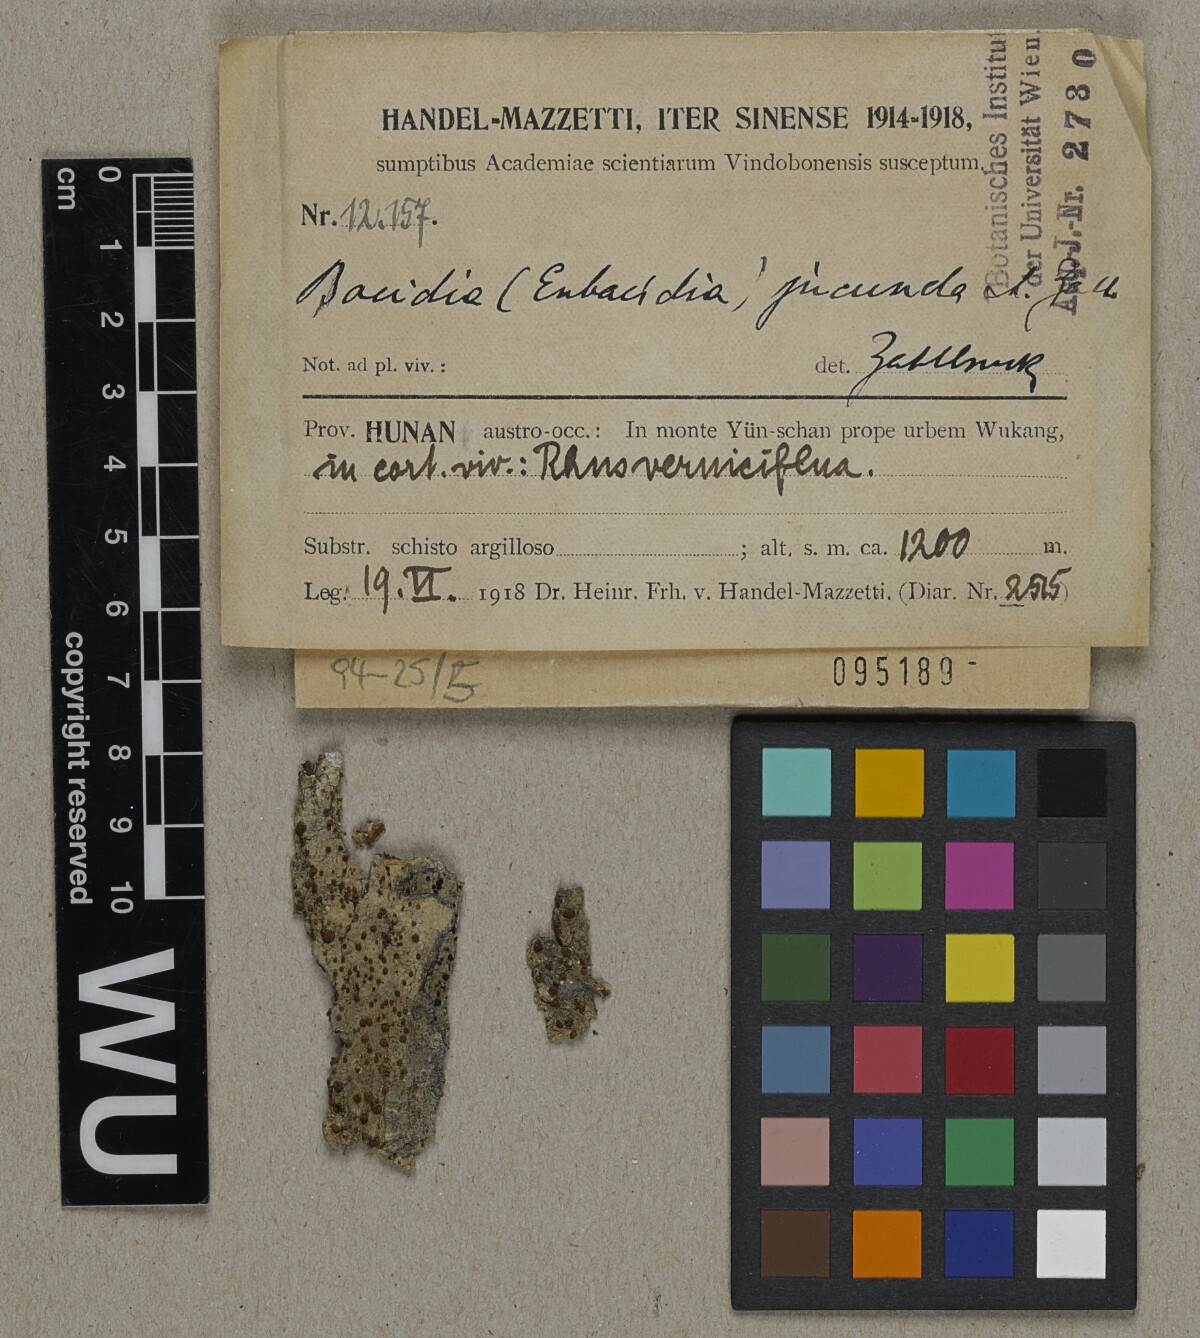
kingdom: Fungi
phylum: Ascomycota
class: Lecanoromycetes
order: Lecanorales
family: Ramalinaceae
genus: Bacidia
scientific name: Bacidia
